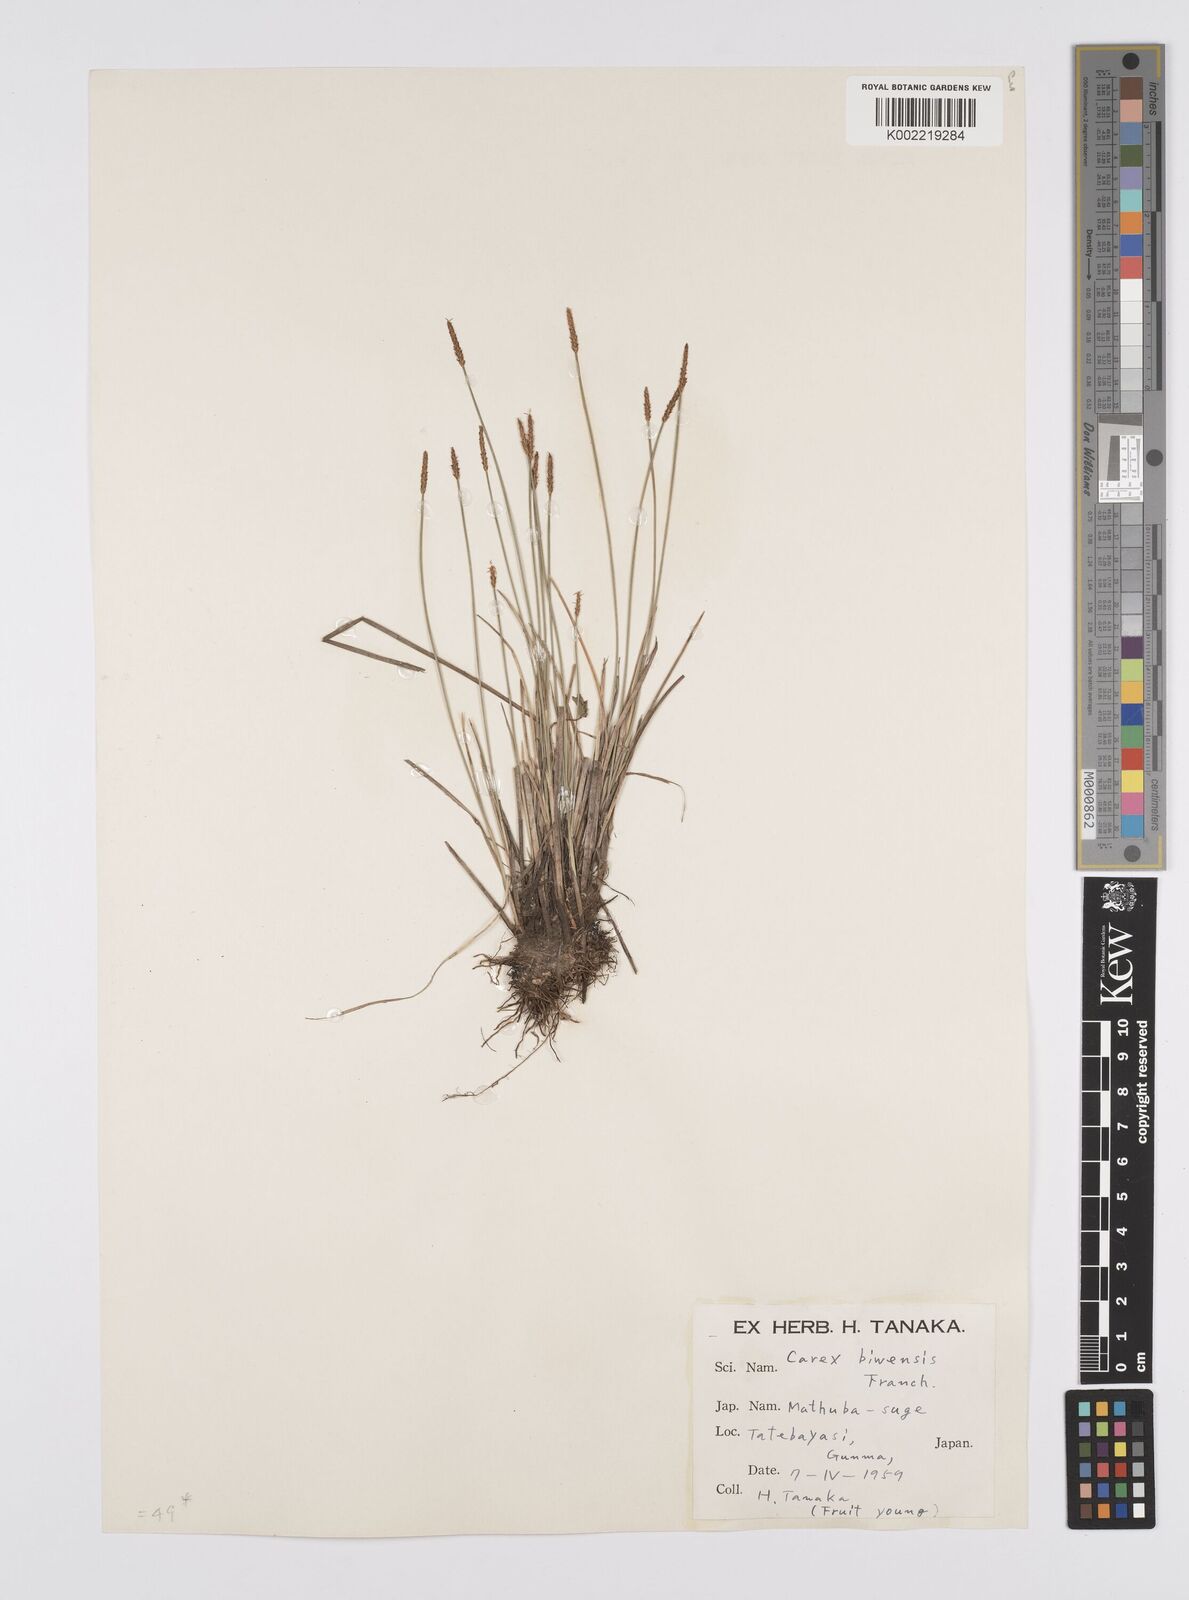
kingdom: Plantae
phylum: Tracheophyta
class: Liliopsida
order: Poales
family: Cyperaceae
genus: Carex
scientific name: Carex rara
